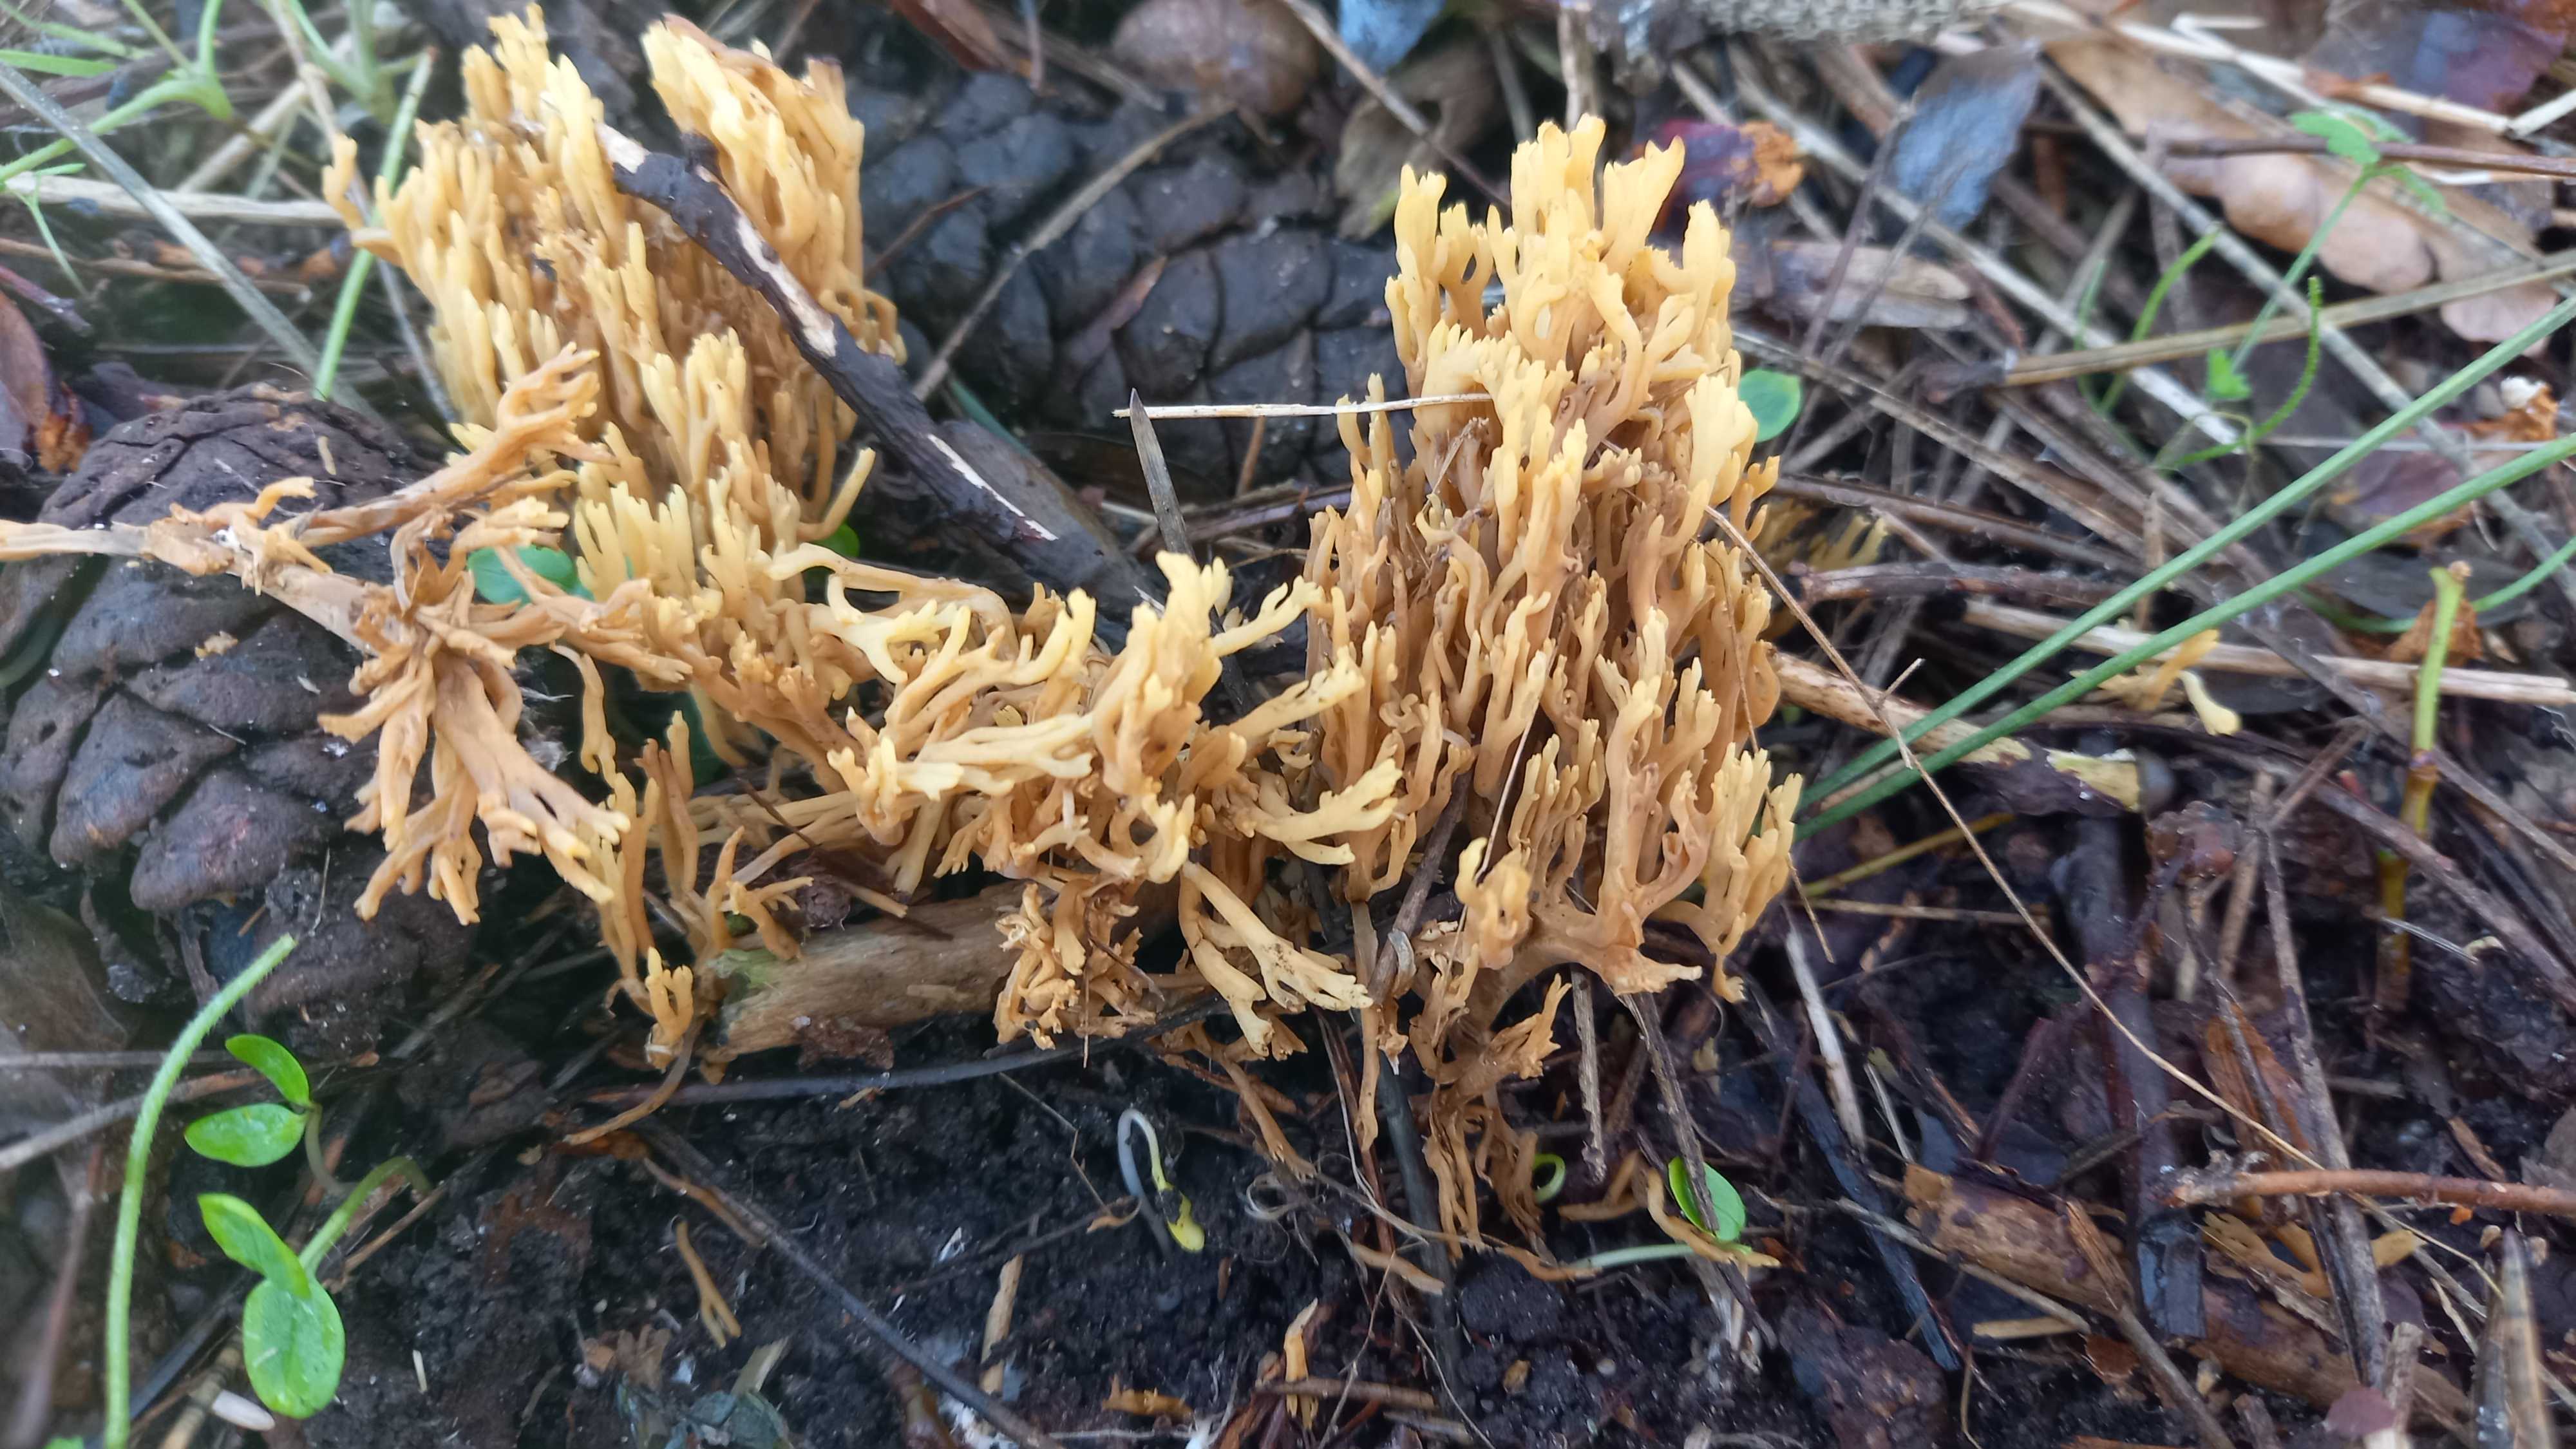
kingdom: Fungi
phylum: Basidiomycota
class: Agaricomycetes
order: Gomphales
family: Gomphaceae
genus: Phaeoclavulina
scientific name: Phaeoclavulina decurrens
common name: krat-koralsvamp
